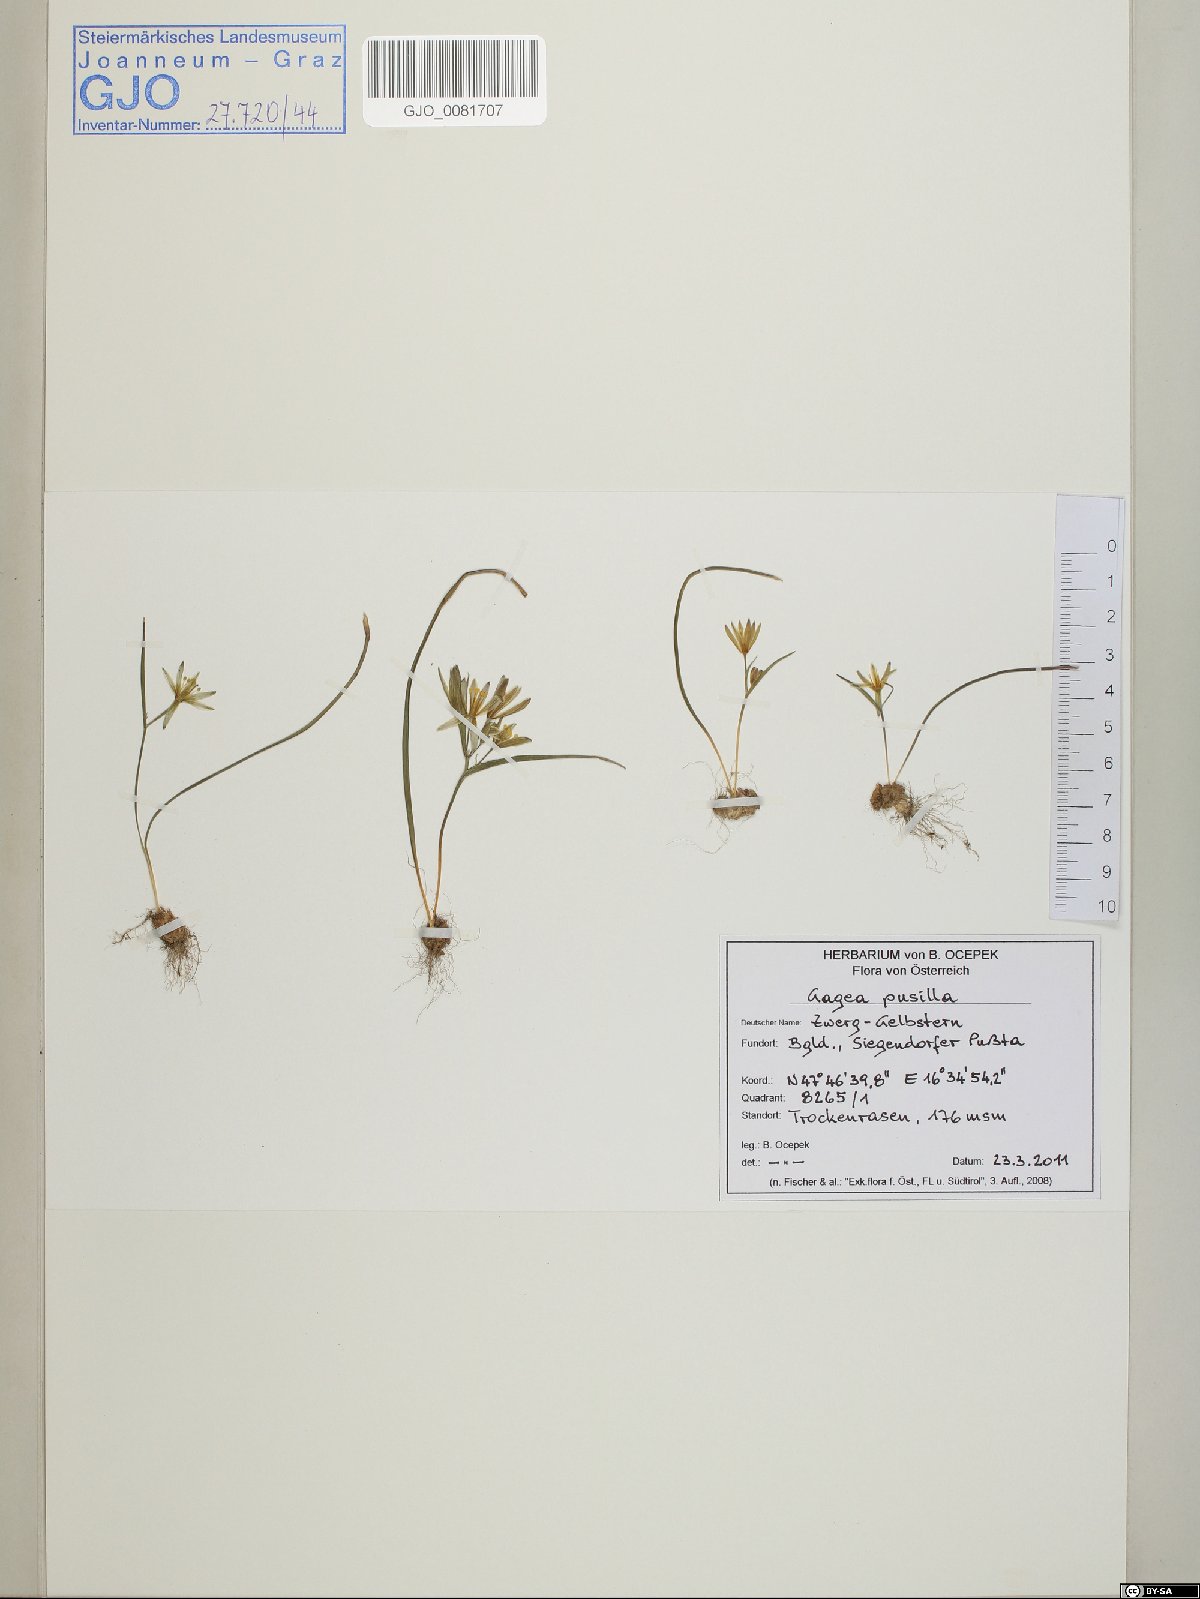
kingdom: Plantae
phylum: Tracheophyta
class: Liliopsida
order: Liliales
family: Liliaceae
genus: Gagea
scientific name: Gagea pusilla
